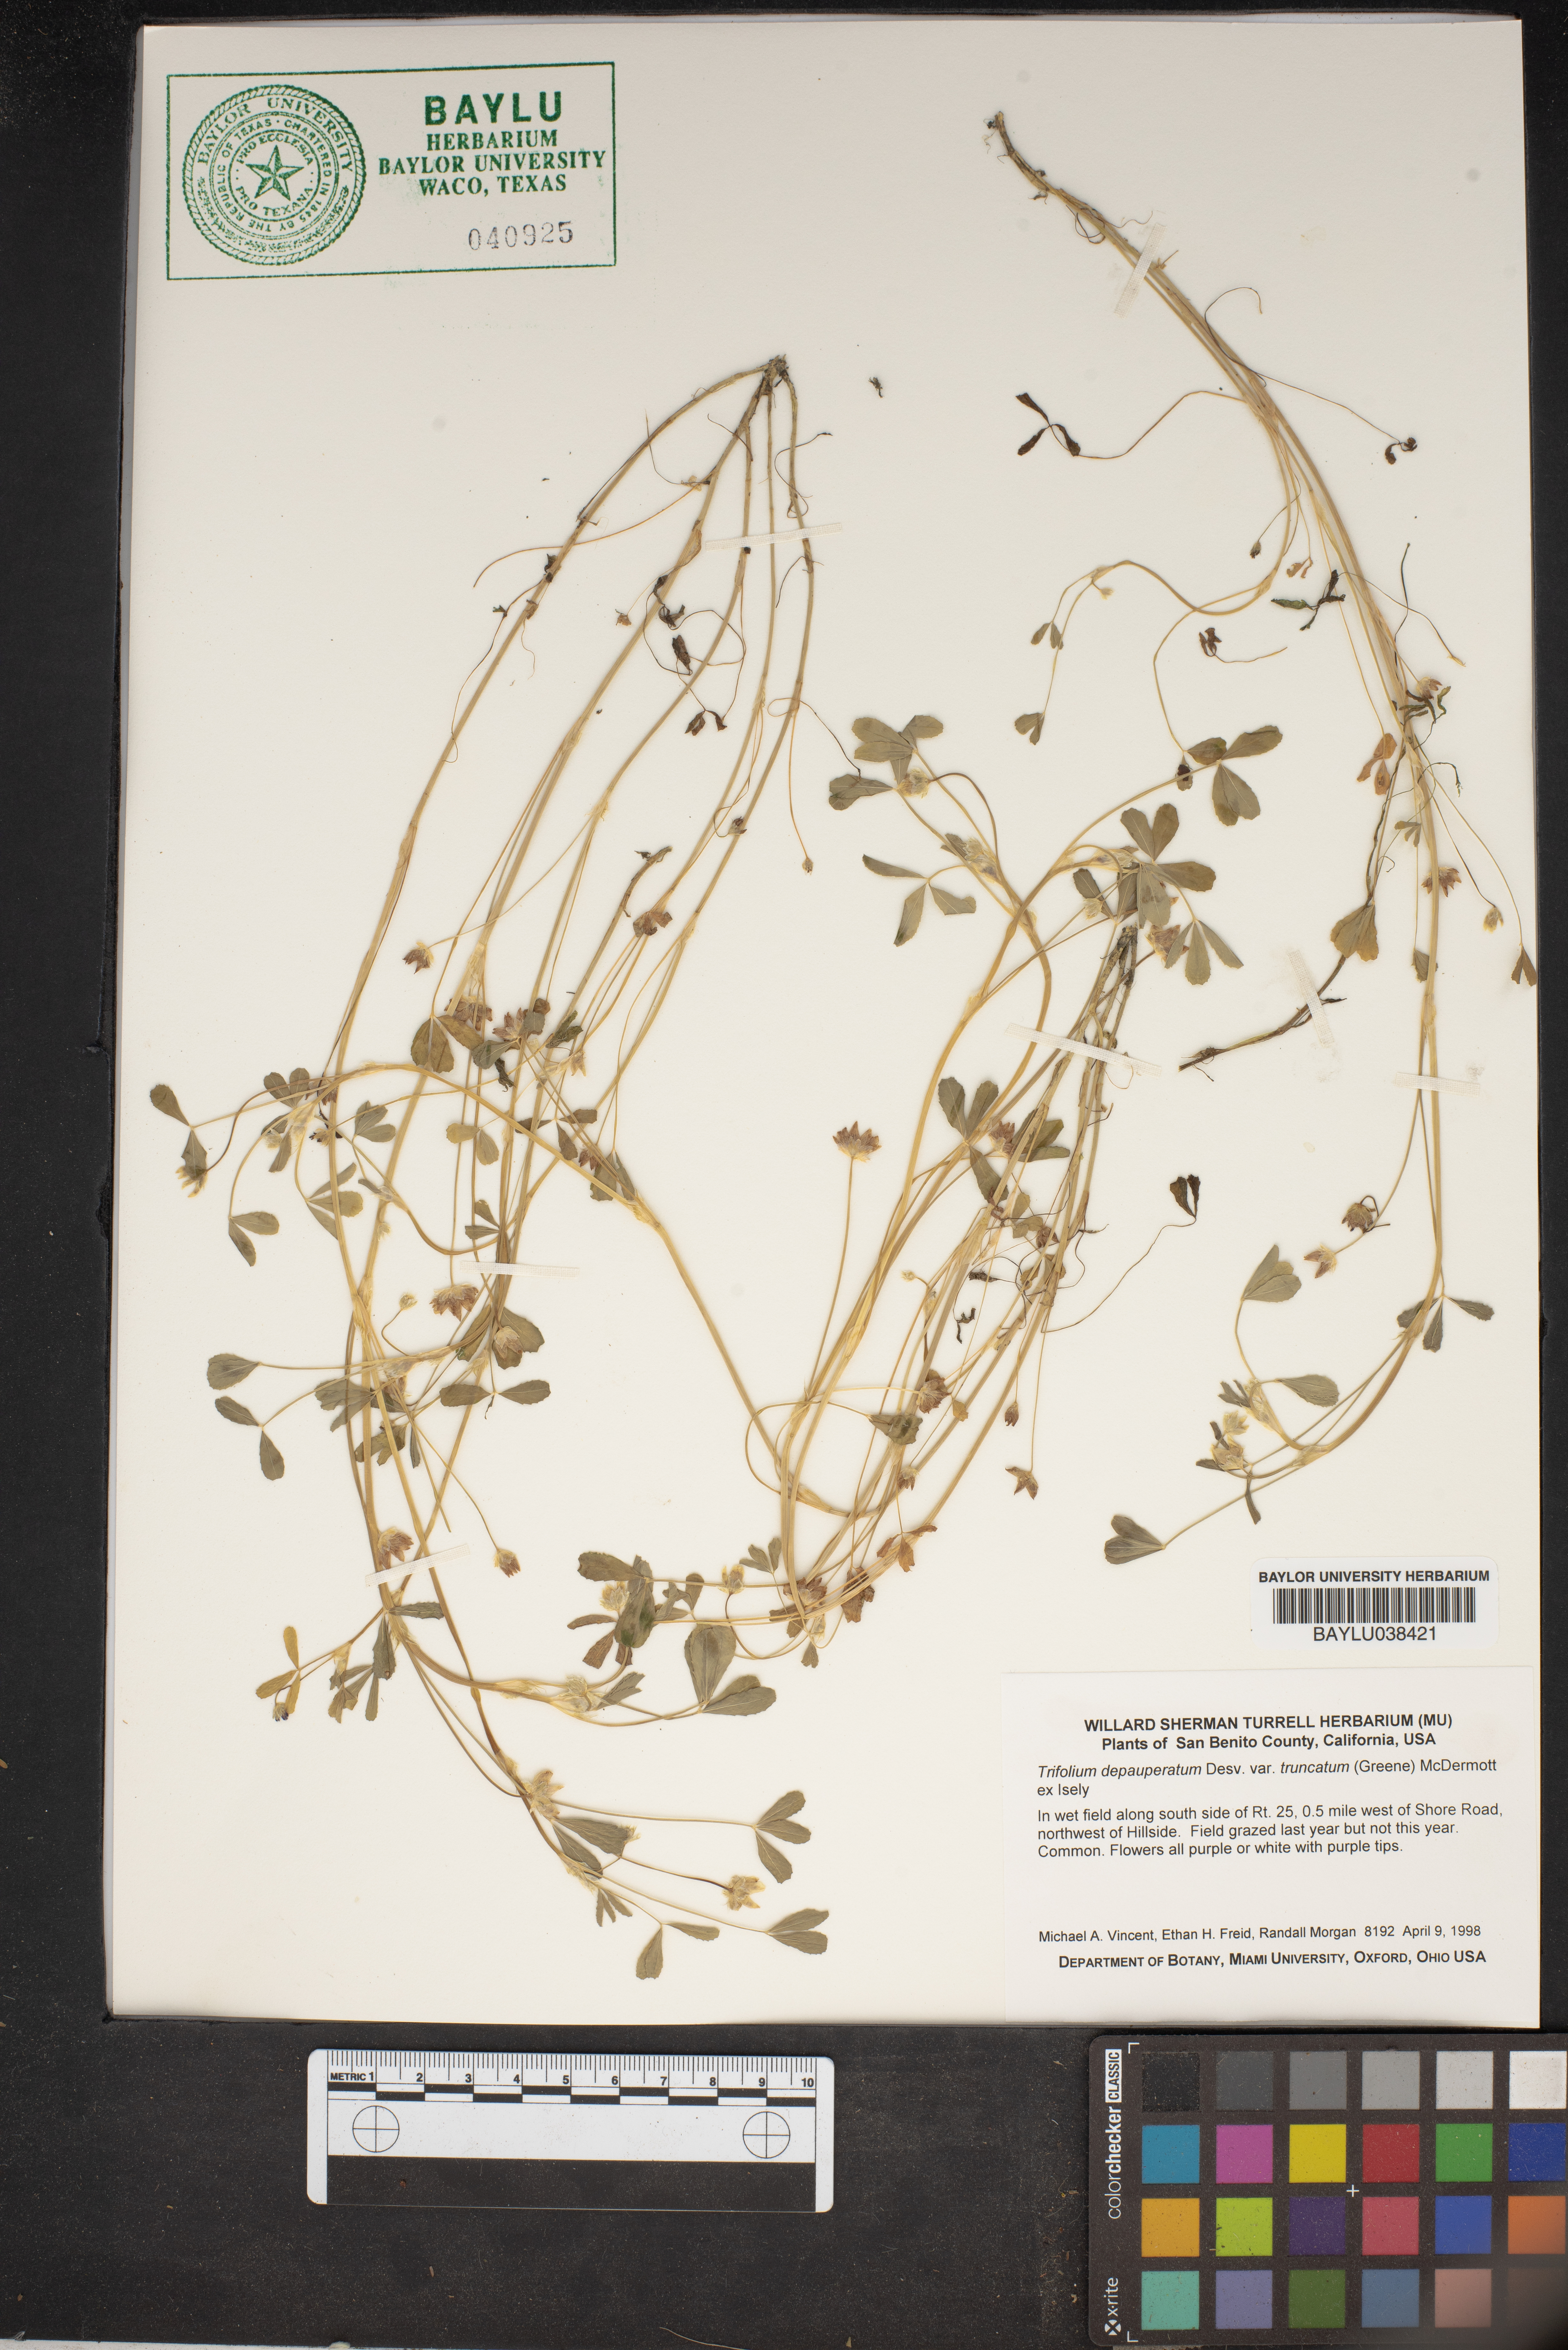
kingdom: Plantae
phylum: Tracheophyta
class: Magnoliopsida
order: Fabales
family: Fabaceae
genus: Trifolium
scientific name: Trifolium depauperatum
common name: Poverty clover
